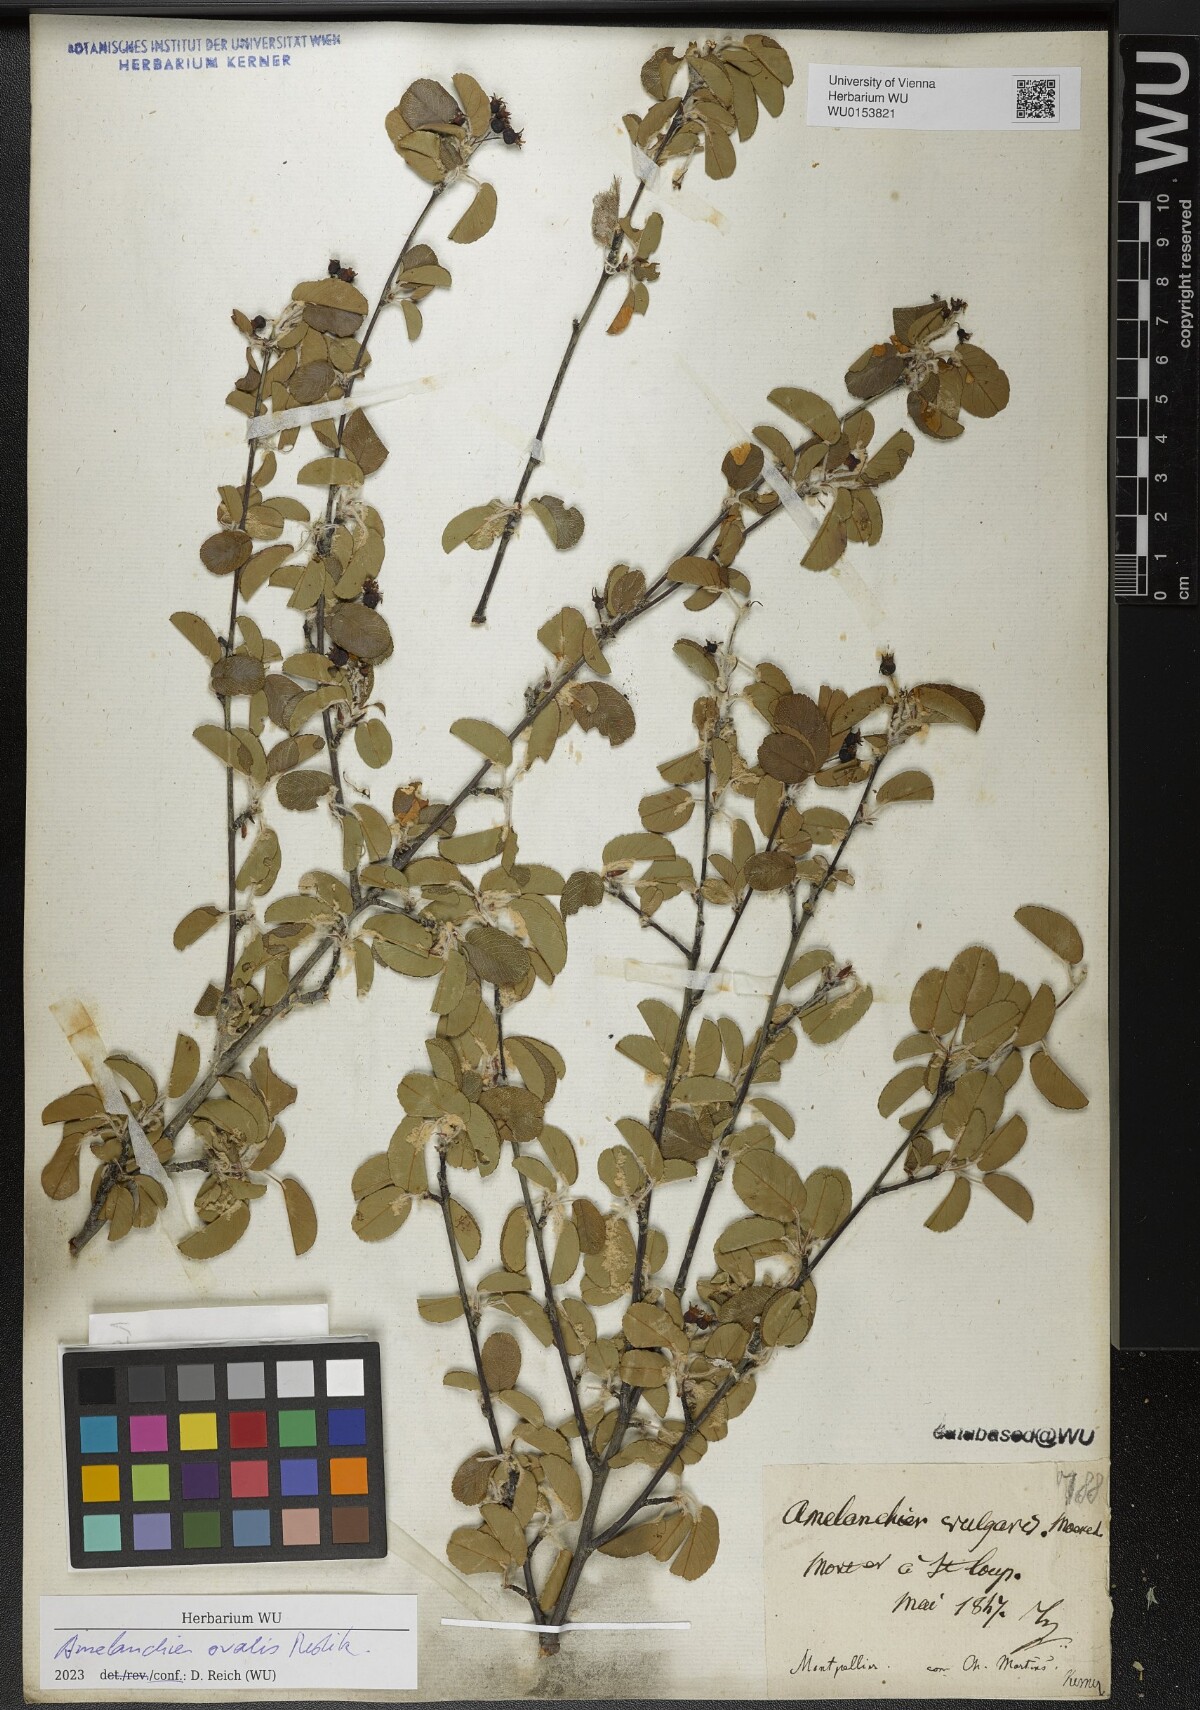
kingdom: Plantae
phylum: Tracheophyta
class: Magnoliopsida
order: Rosales
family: Rosaceae
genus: Amelanchier
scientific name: Amelanchier ovalis
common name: Serviceberry
